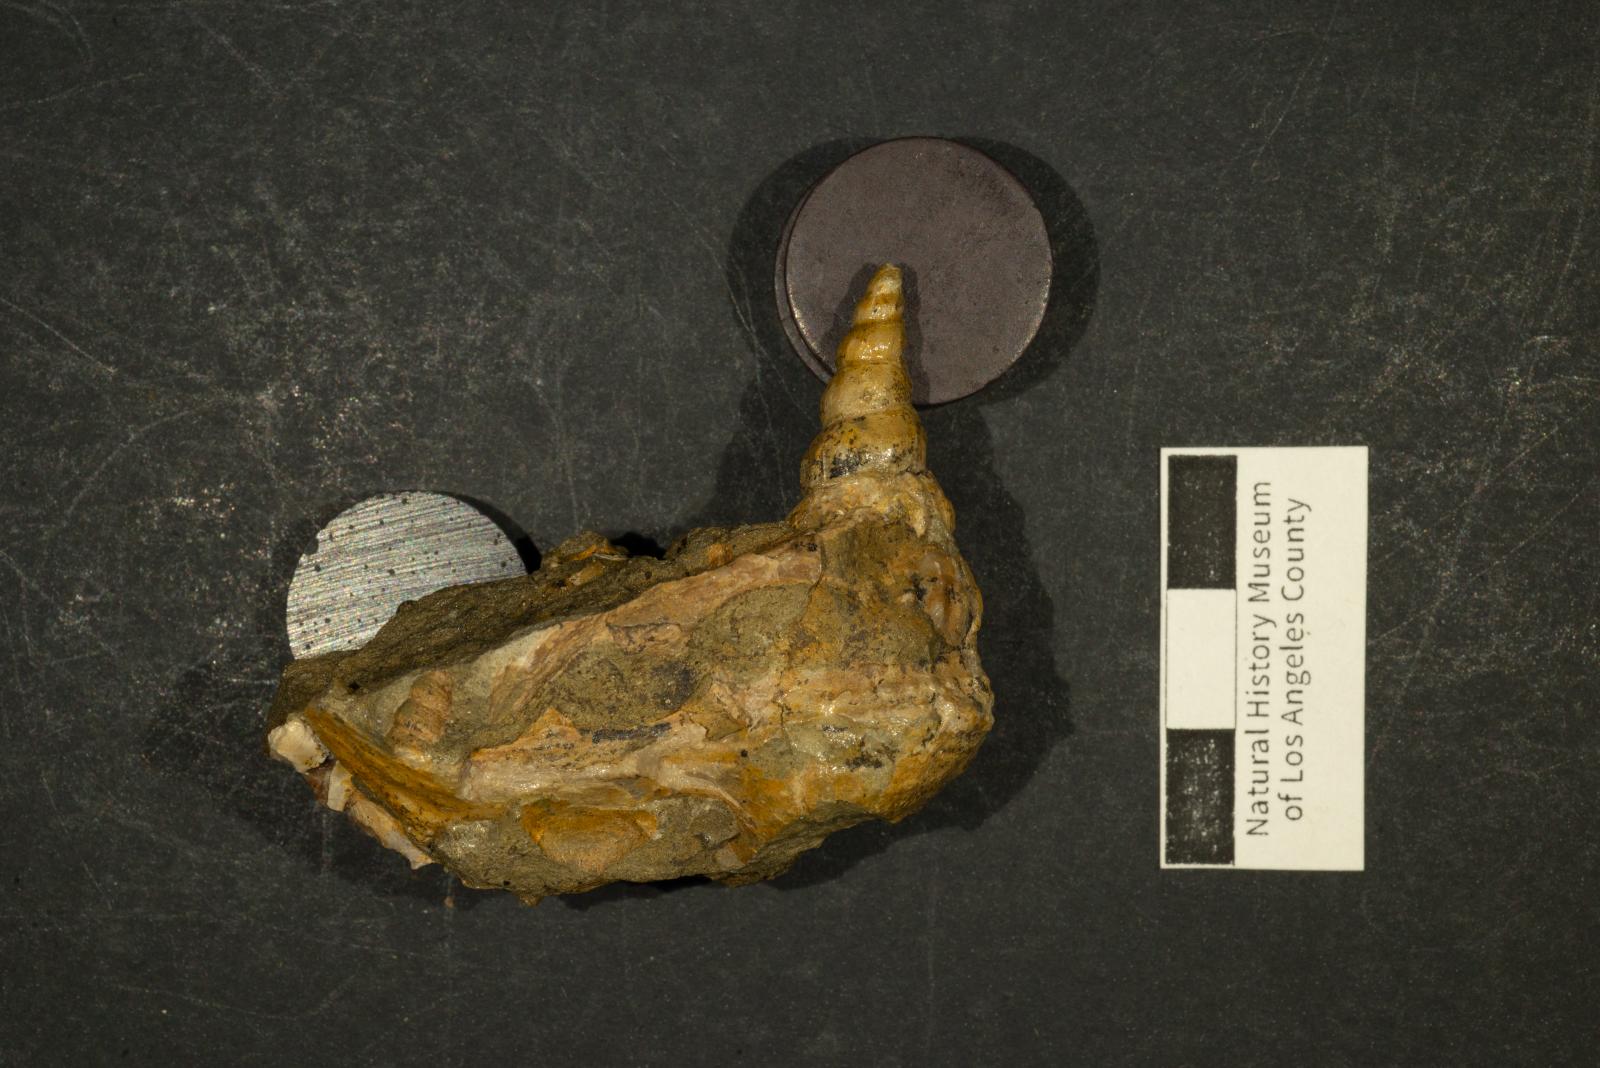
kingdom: Animalia
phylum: Mollusca
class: Gastropoda
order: Littorinimorpha
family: Aporrhaidae
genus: Helicaulax
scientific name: Helicaulax Anchura tricosa
